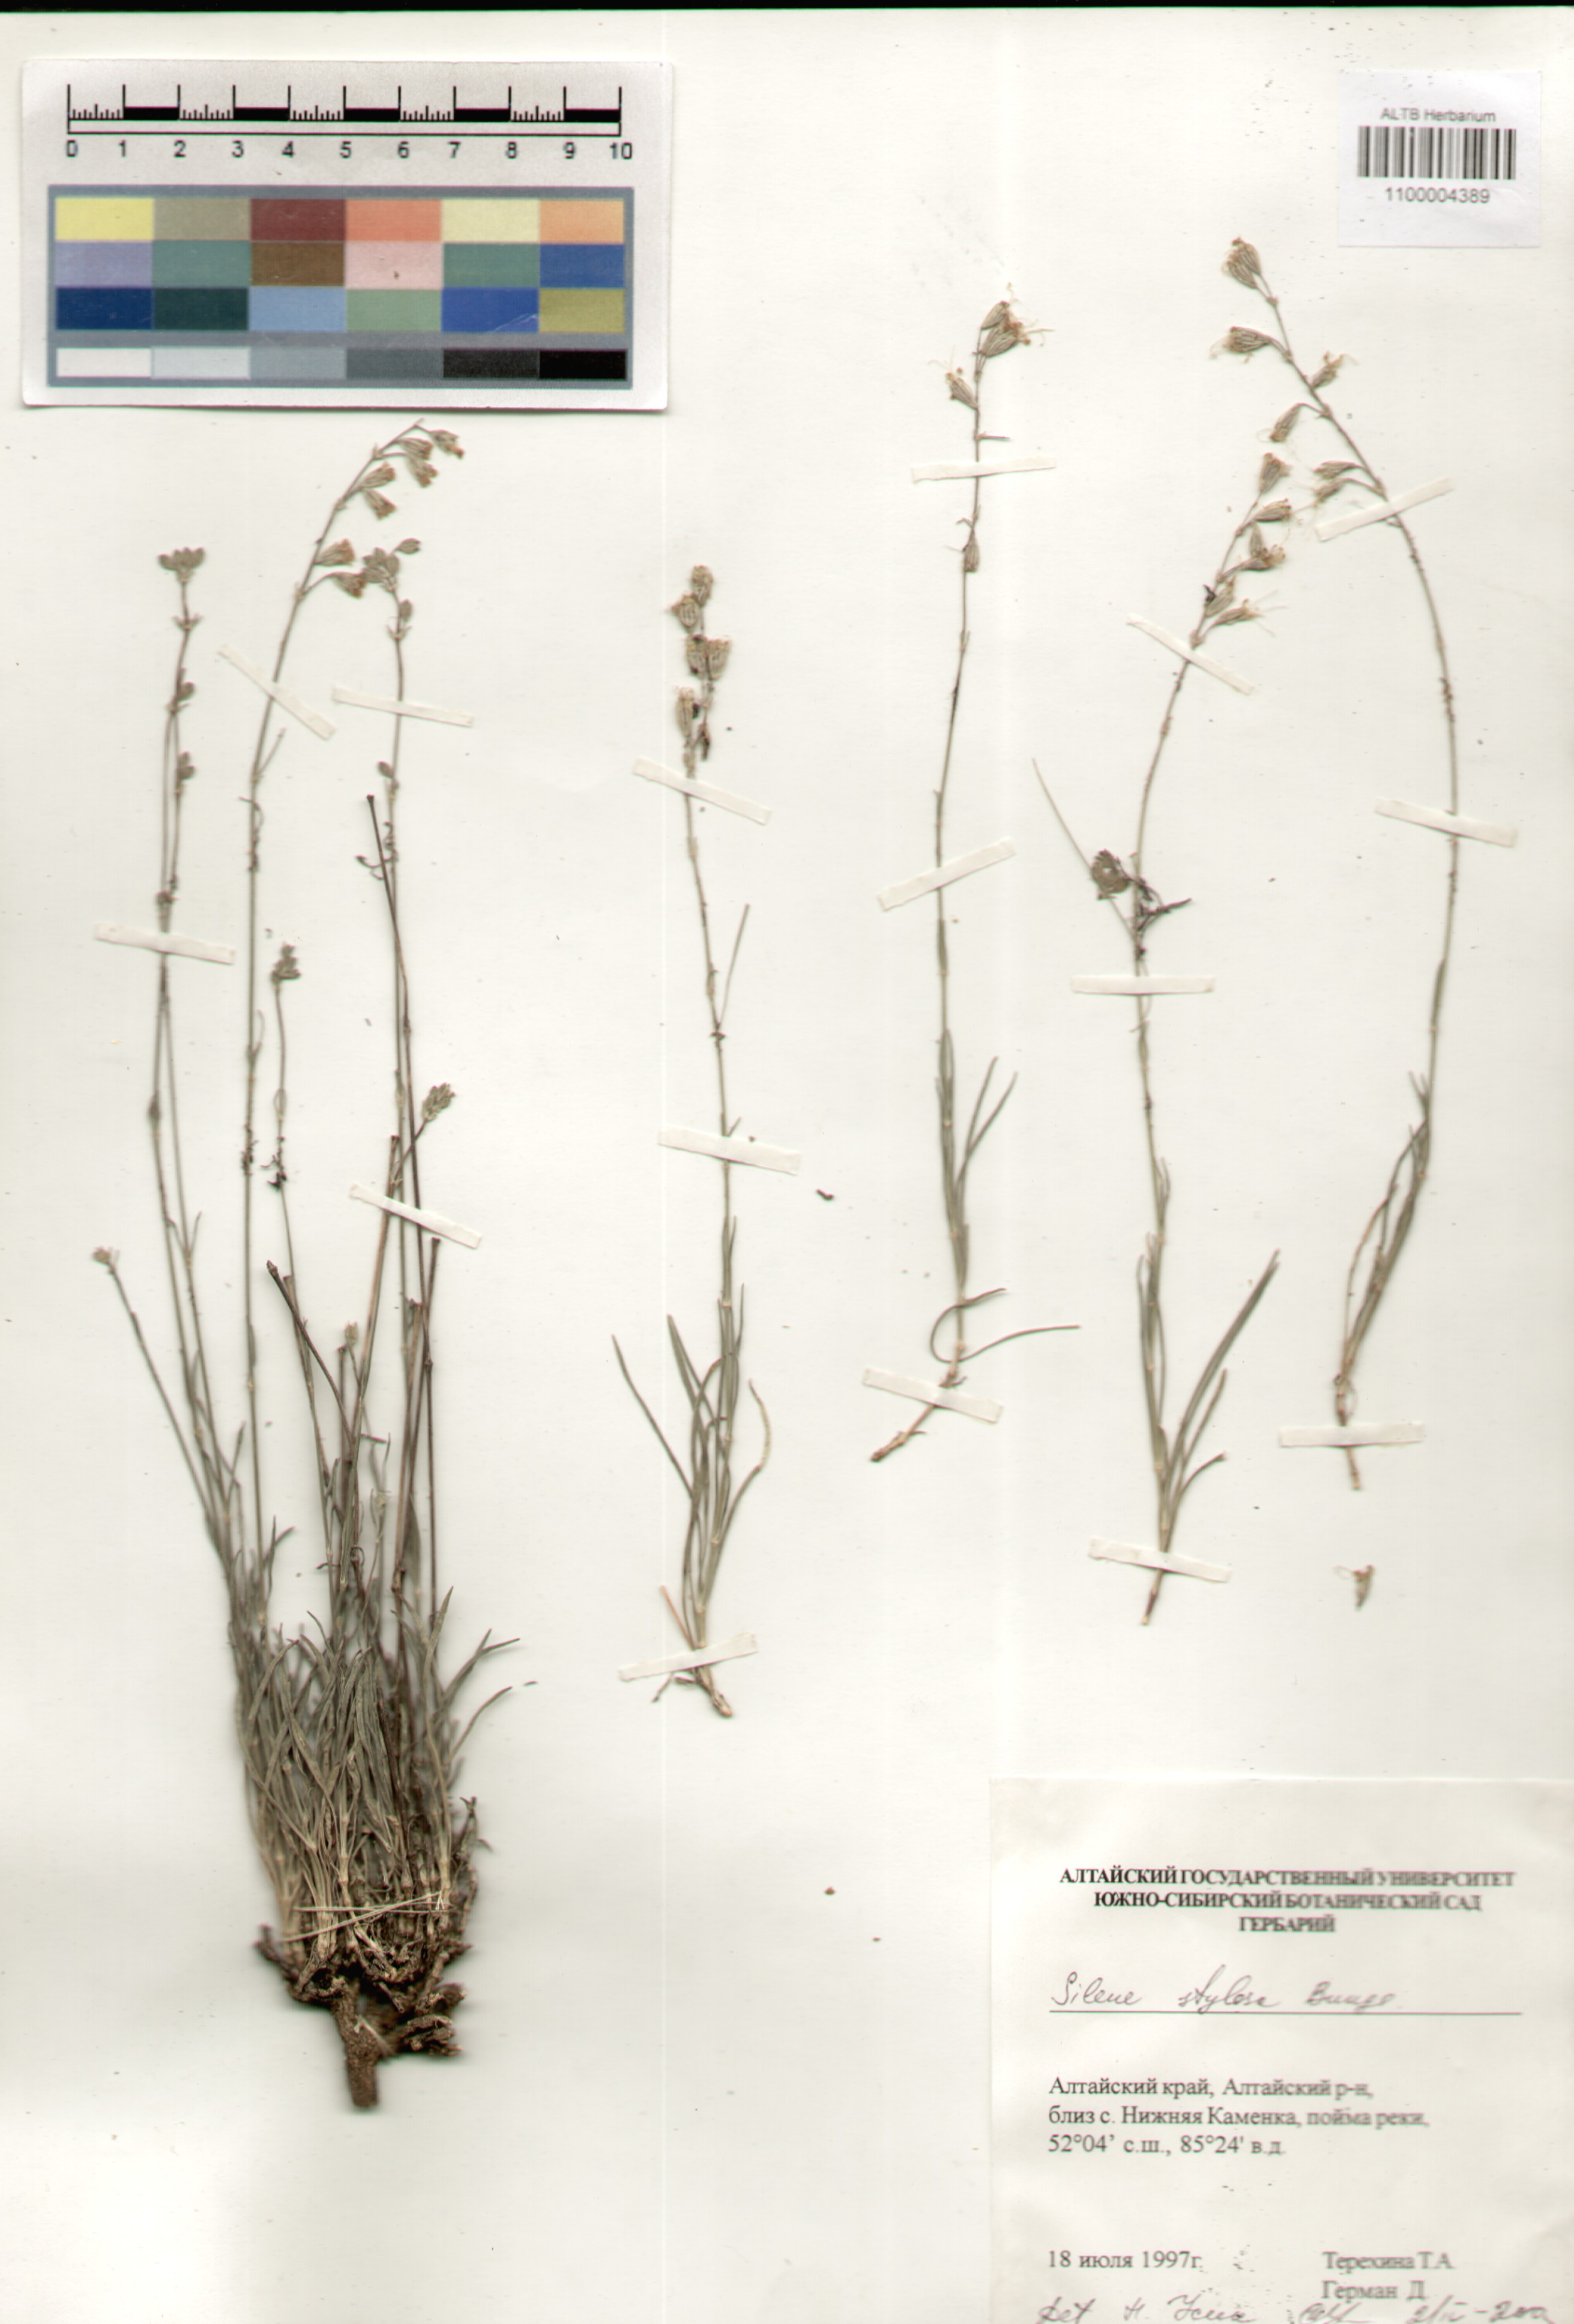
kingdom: Plantae
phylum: Tracheophyta
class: Magnoliopsida
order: Caryophyllales
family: Caryophyllaceae
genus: Silene
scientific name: Silene graminifolia
